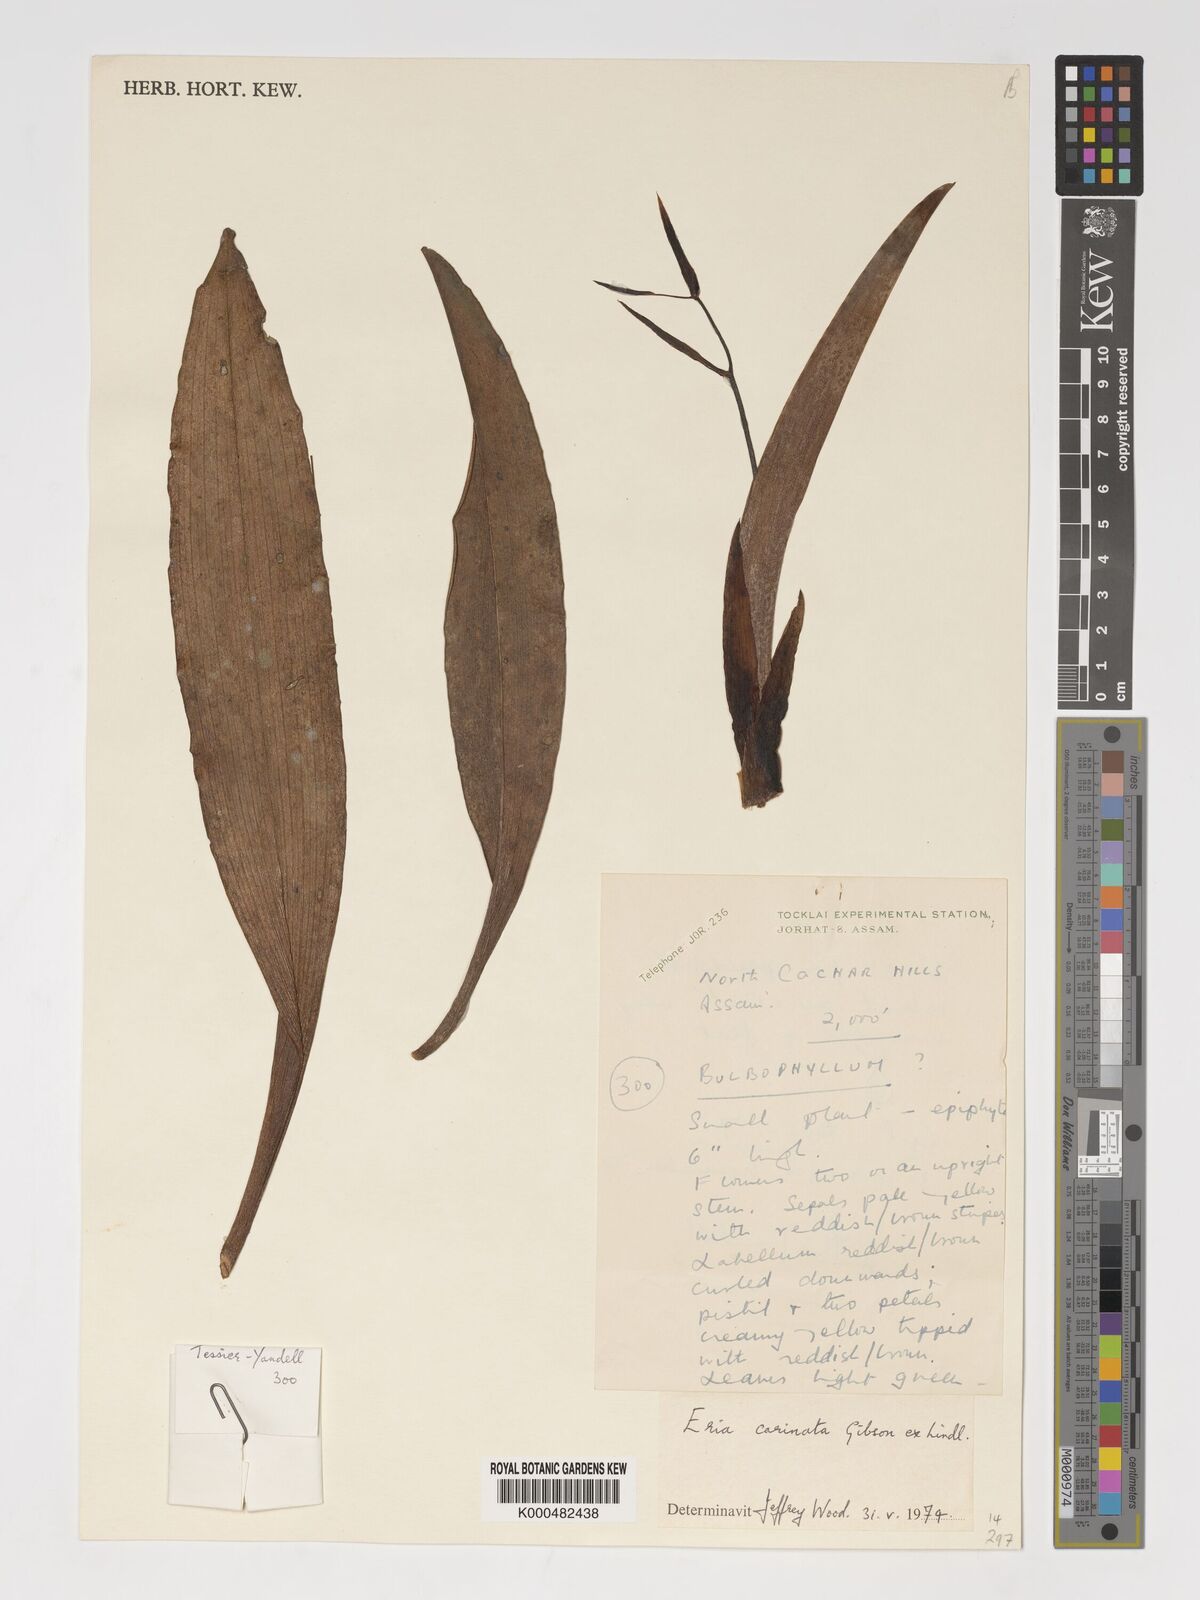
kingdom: Plantae
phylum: Tracheophyta
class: Liliopsida
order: Asparagales
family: Orchidaceae
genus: Eria
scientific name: Eria
